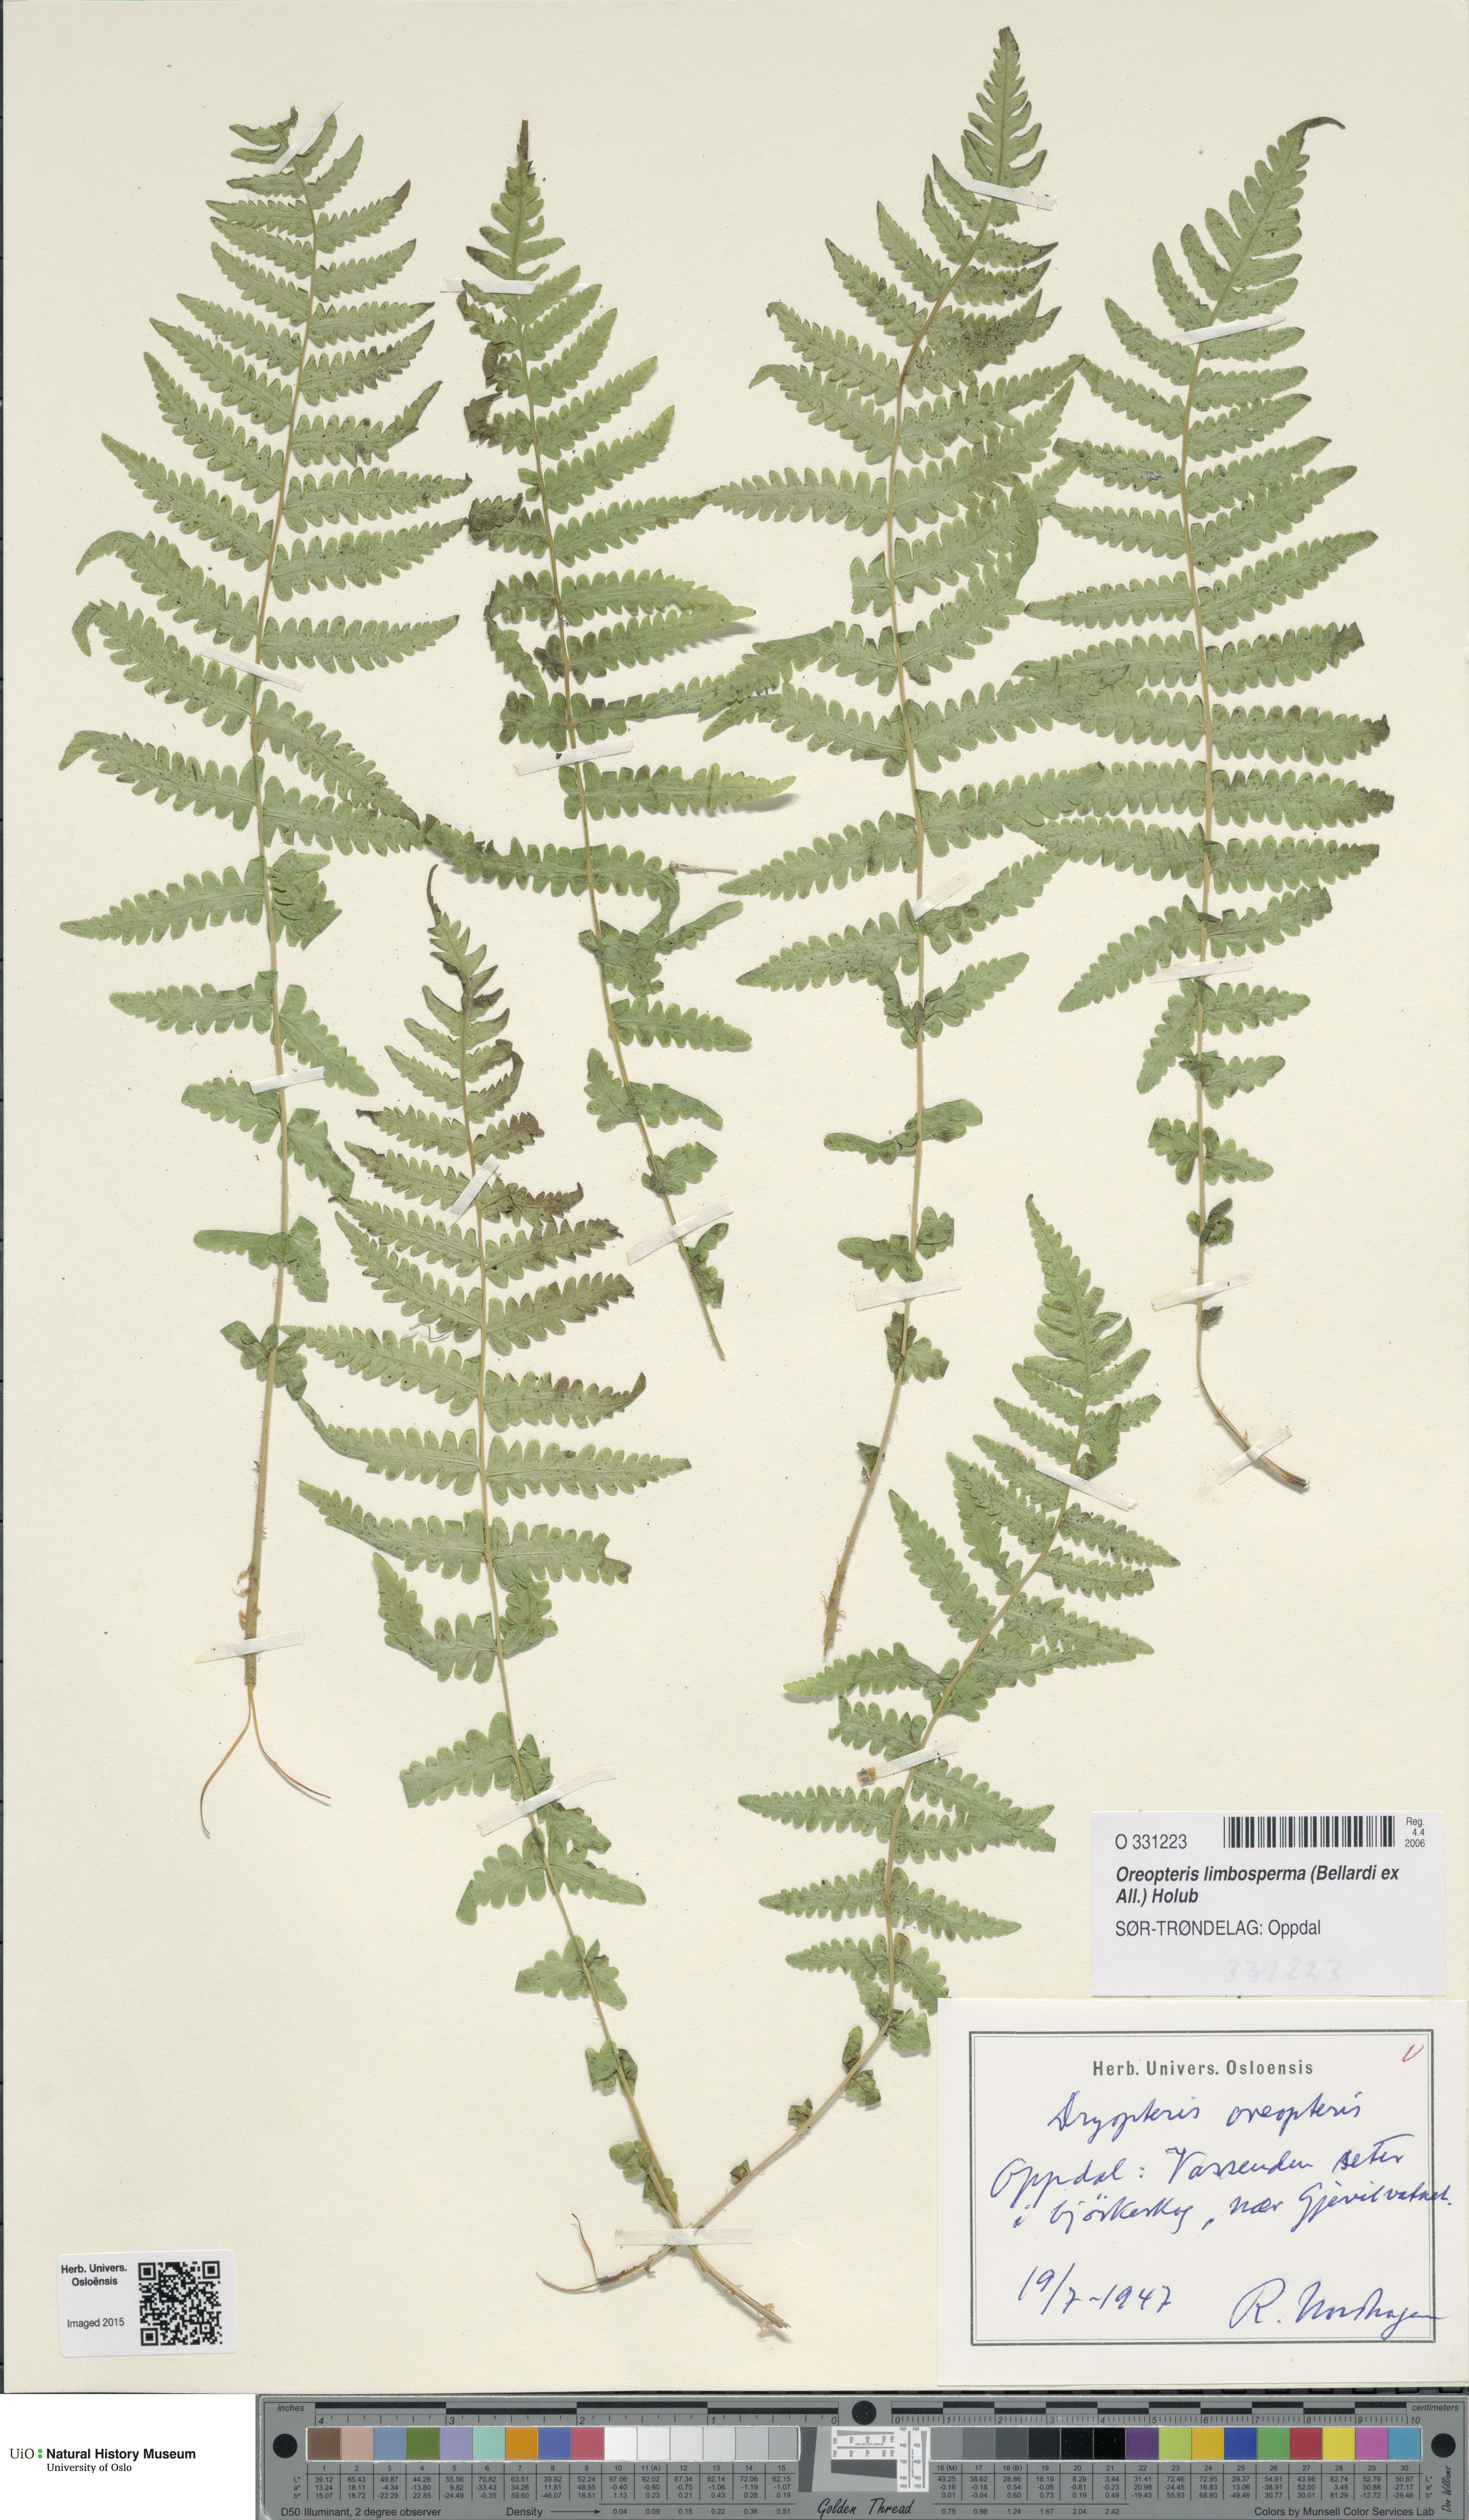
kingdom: Plantae
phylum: Tracheophyta
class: Polypodiopsida
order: Polypodiales
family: Thelypteridaceae
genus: Oreopteris
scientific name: Oreopteris limbosperma
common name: Lemon-scented fern
